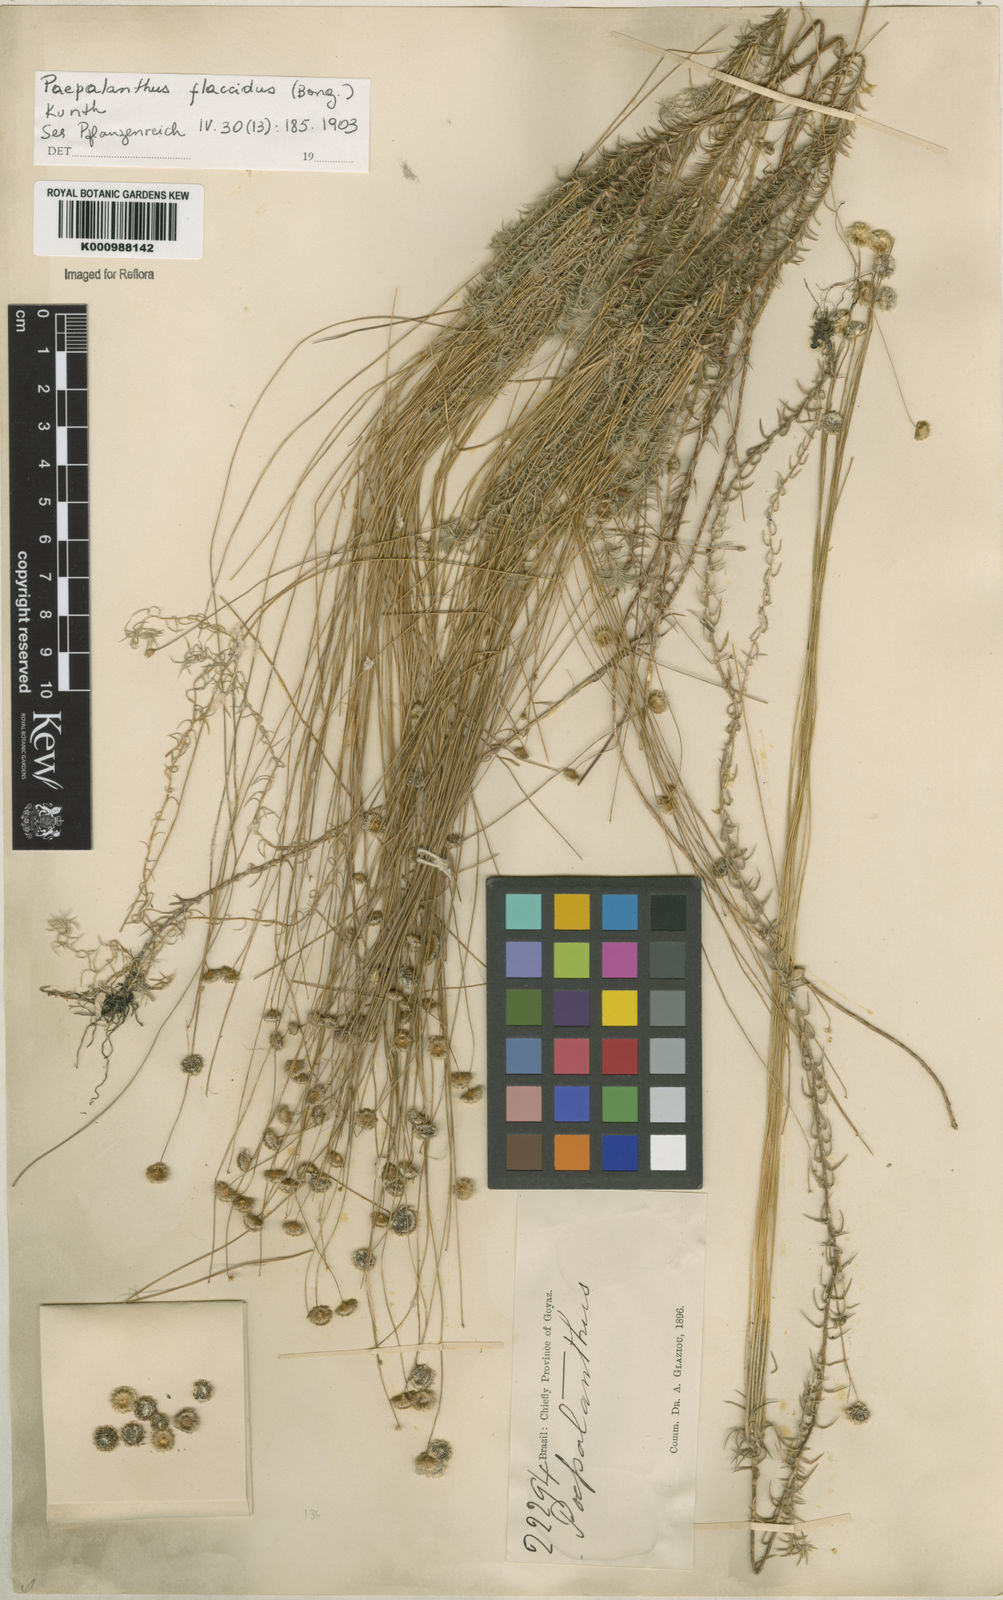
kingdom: Plantae
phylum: Tracheophyta
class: Liliopsida
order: Poales
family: Eriocaulaceae
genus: Paepalanthus
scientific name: Paepalanthus flaccidus
